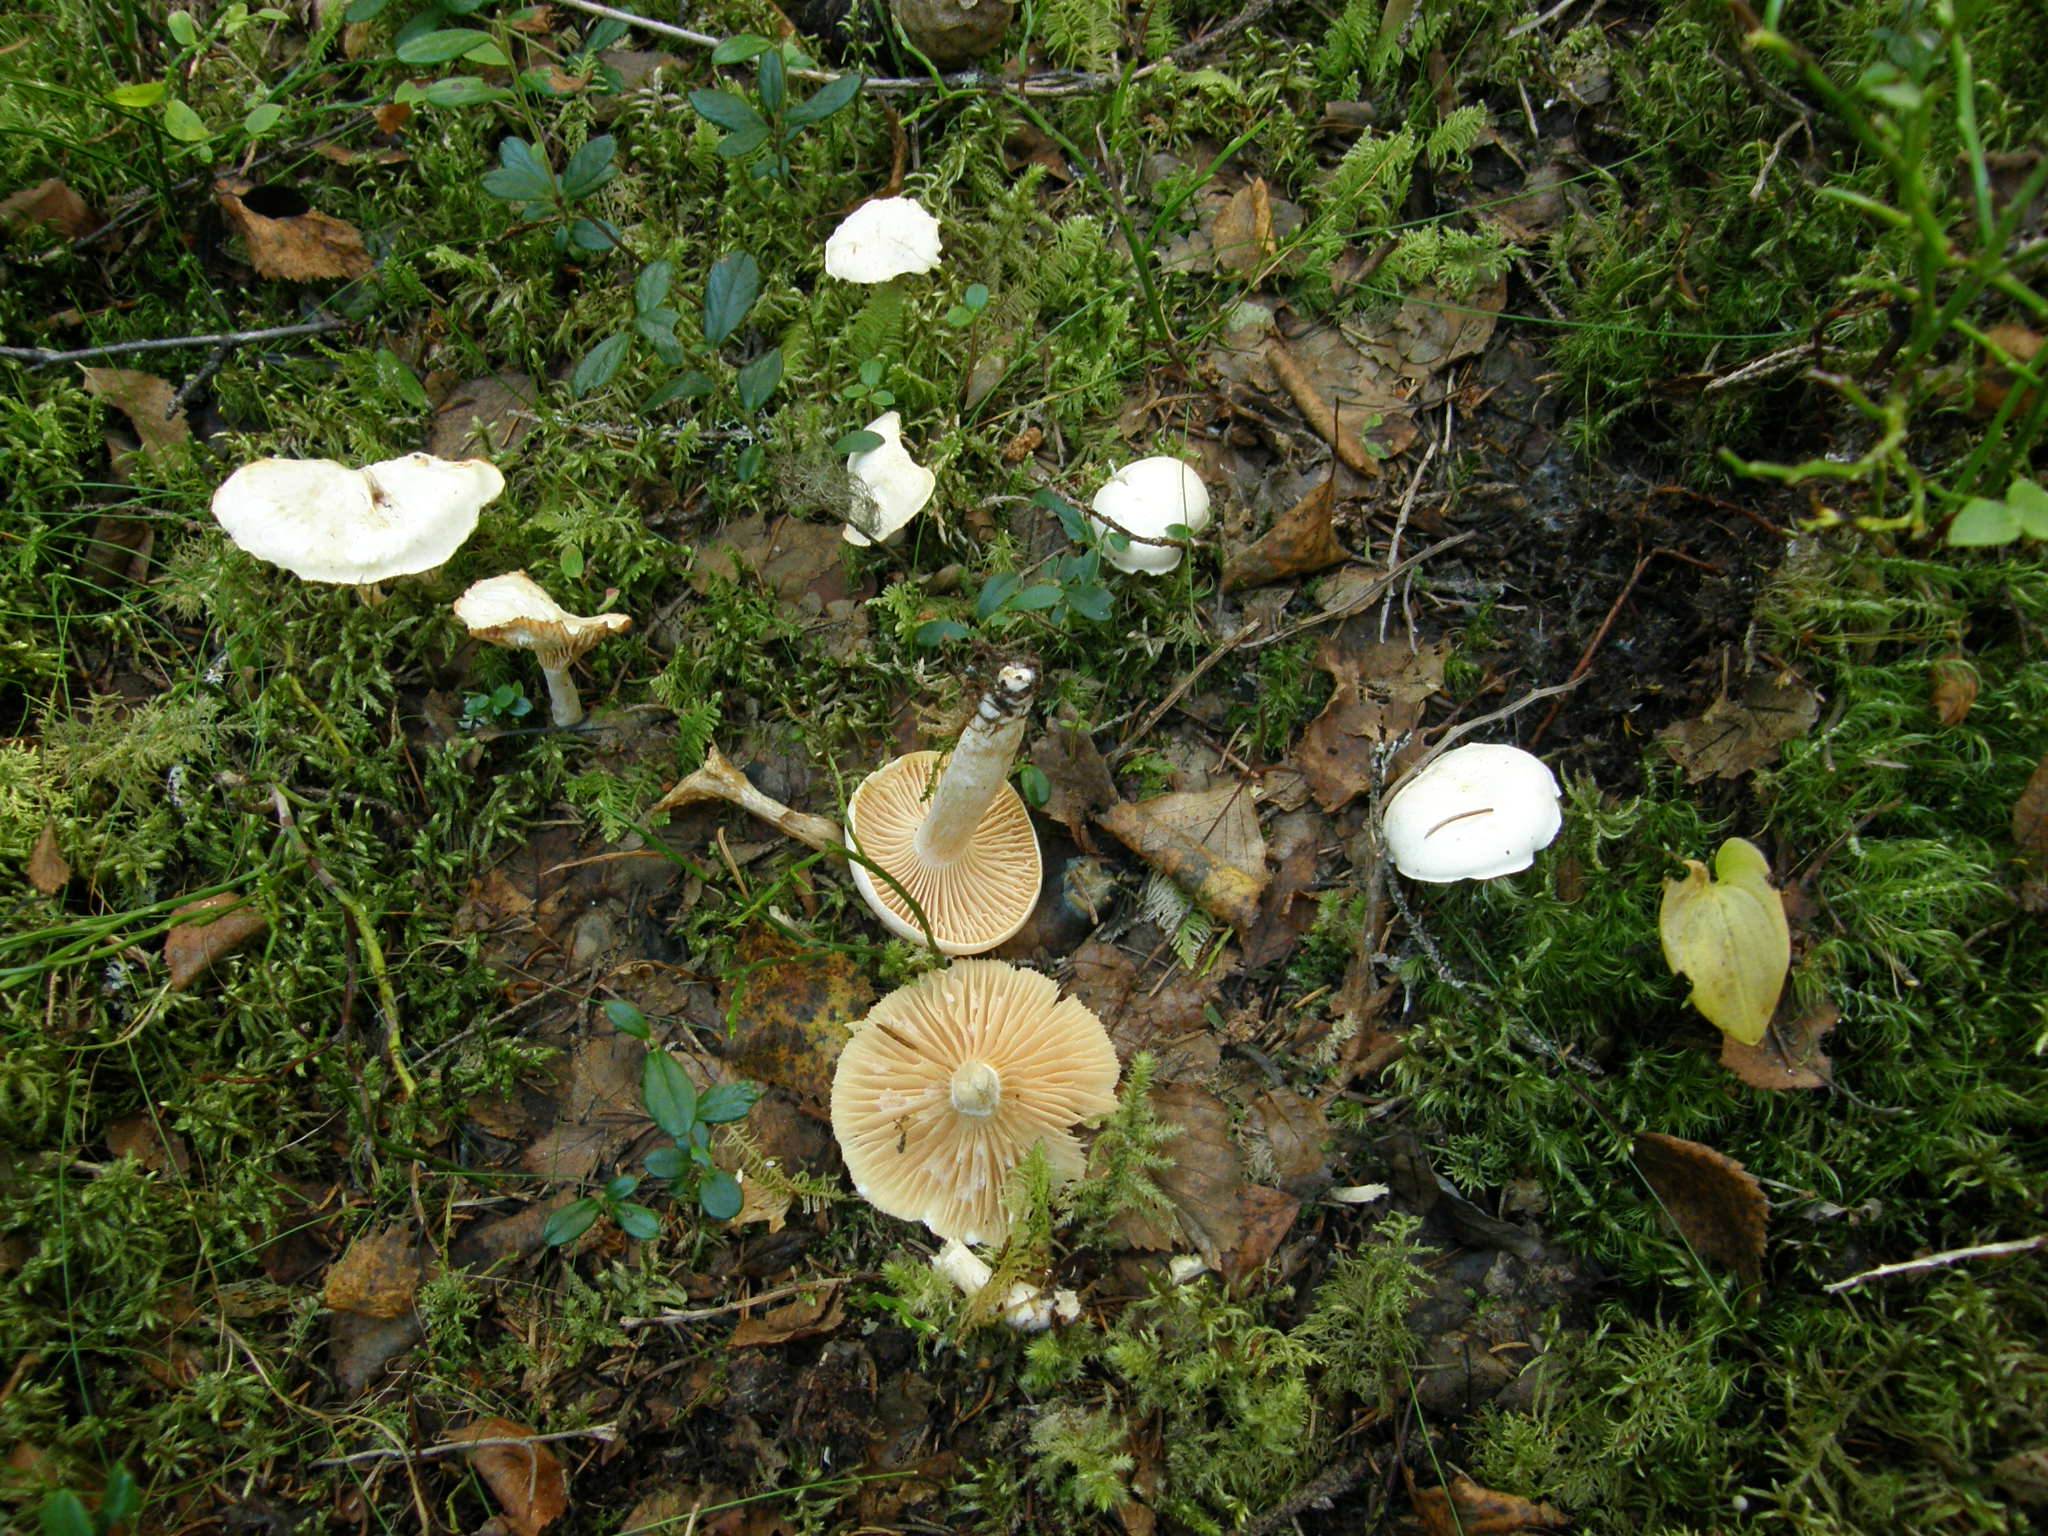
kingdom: Fungi
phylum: Basidiomycota
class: Agaricomycetes
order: Agaricales
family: Hygrophoraceae
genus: Cuphophyllus
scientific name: Cuphophyllus pratensis
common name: Meadow waxcap
